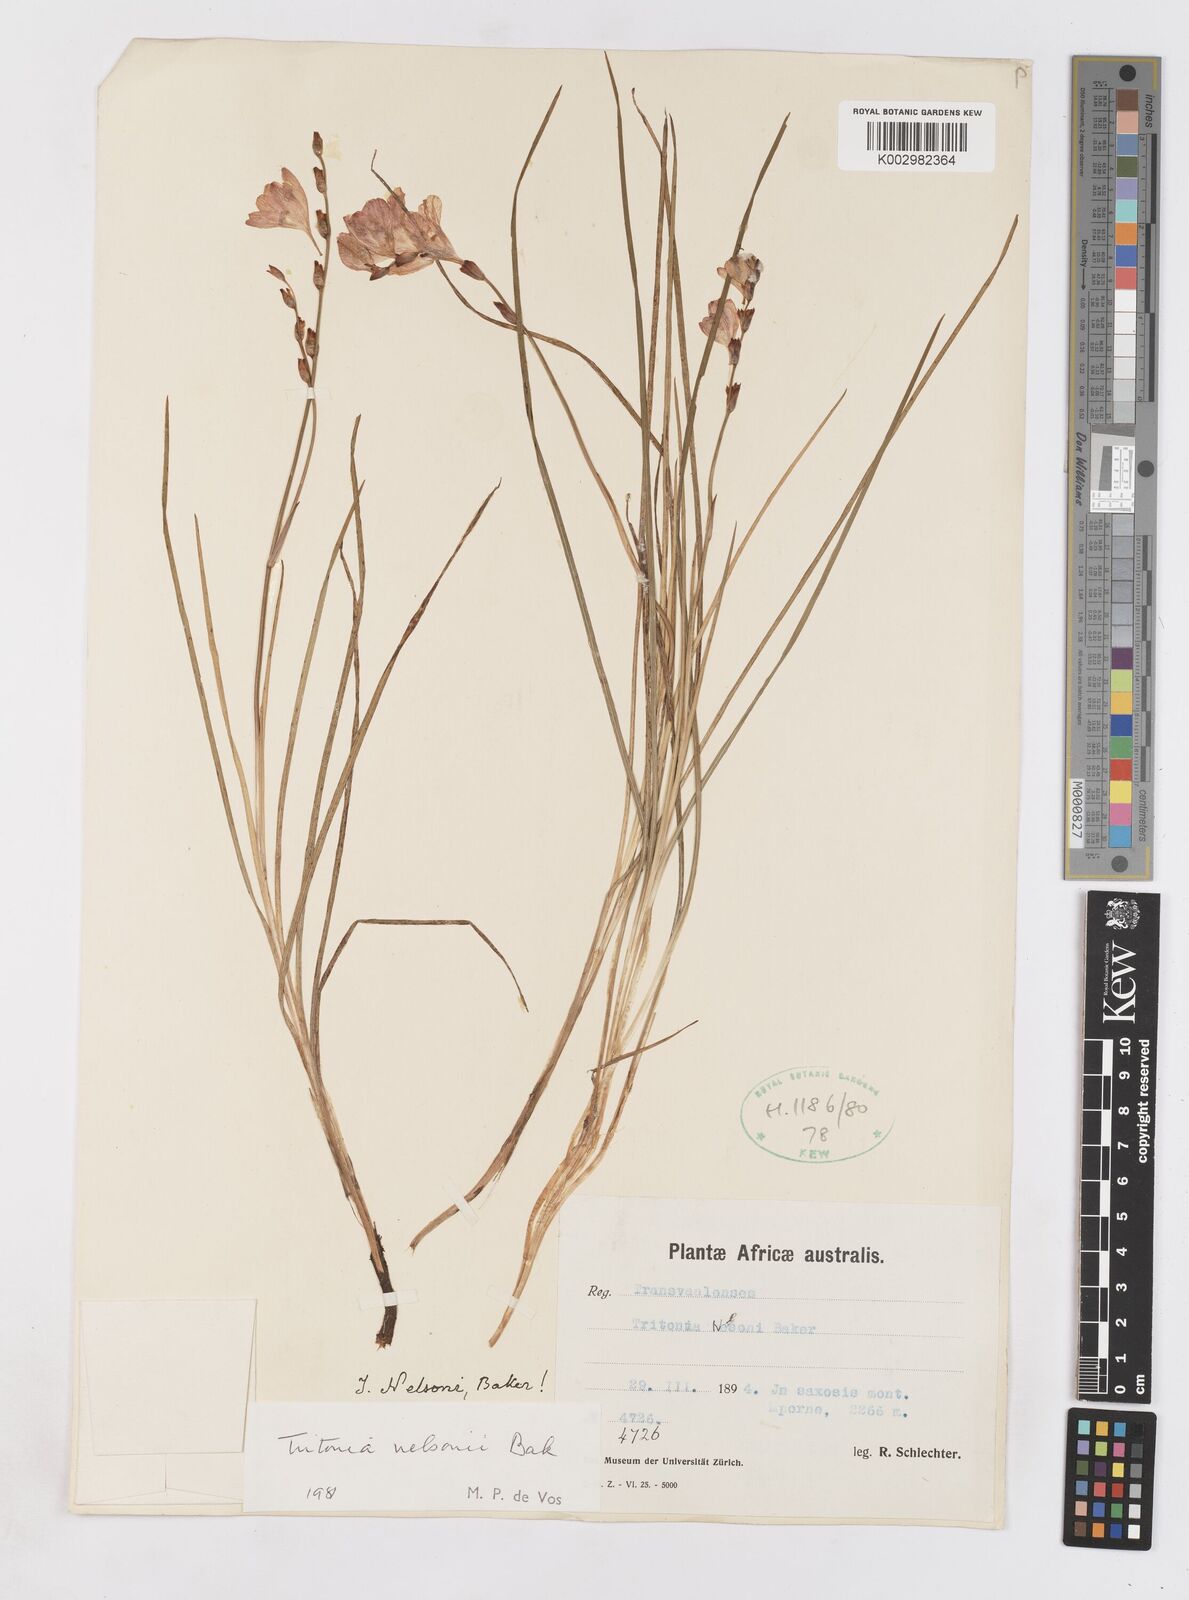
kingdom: Plantae
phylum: Tracheophyta
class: Liliopsida
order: Asparagales
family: Iridaceae
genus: Tritonia
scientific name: Tritonia nelsonii
